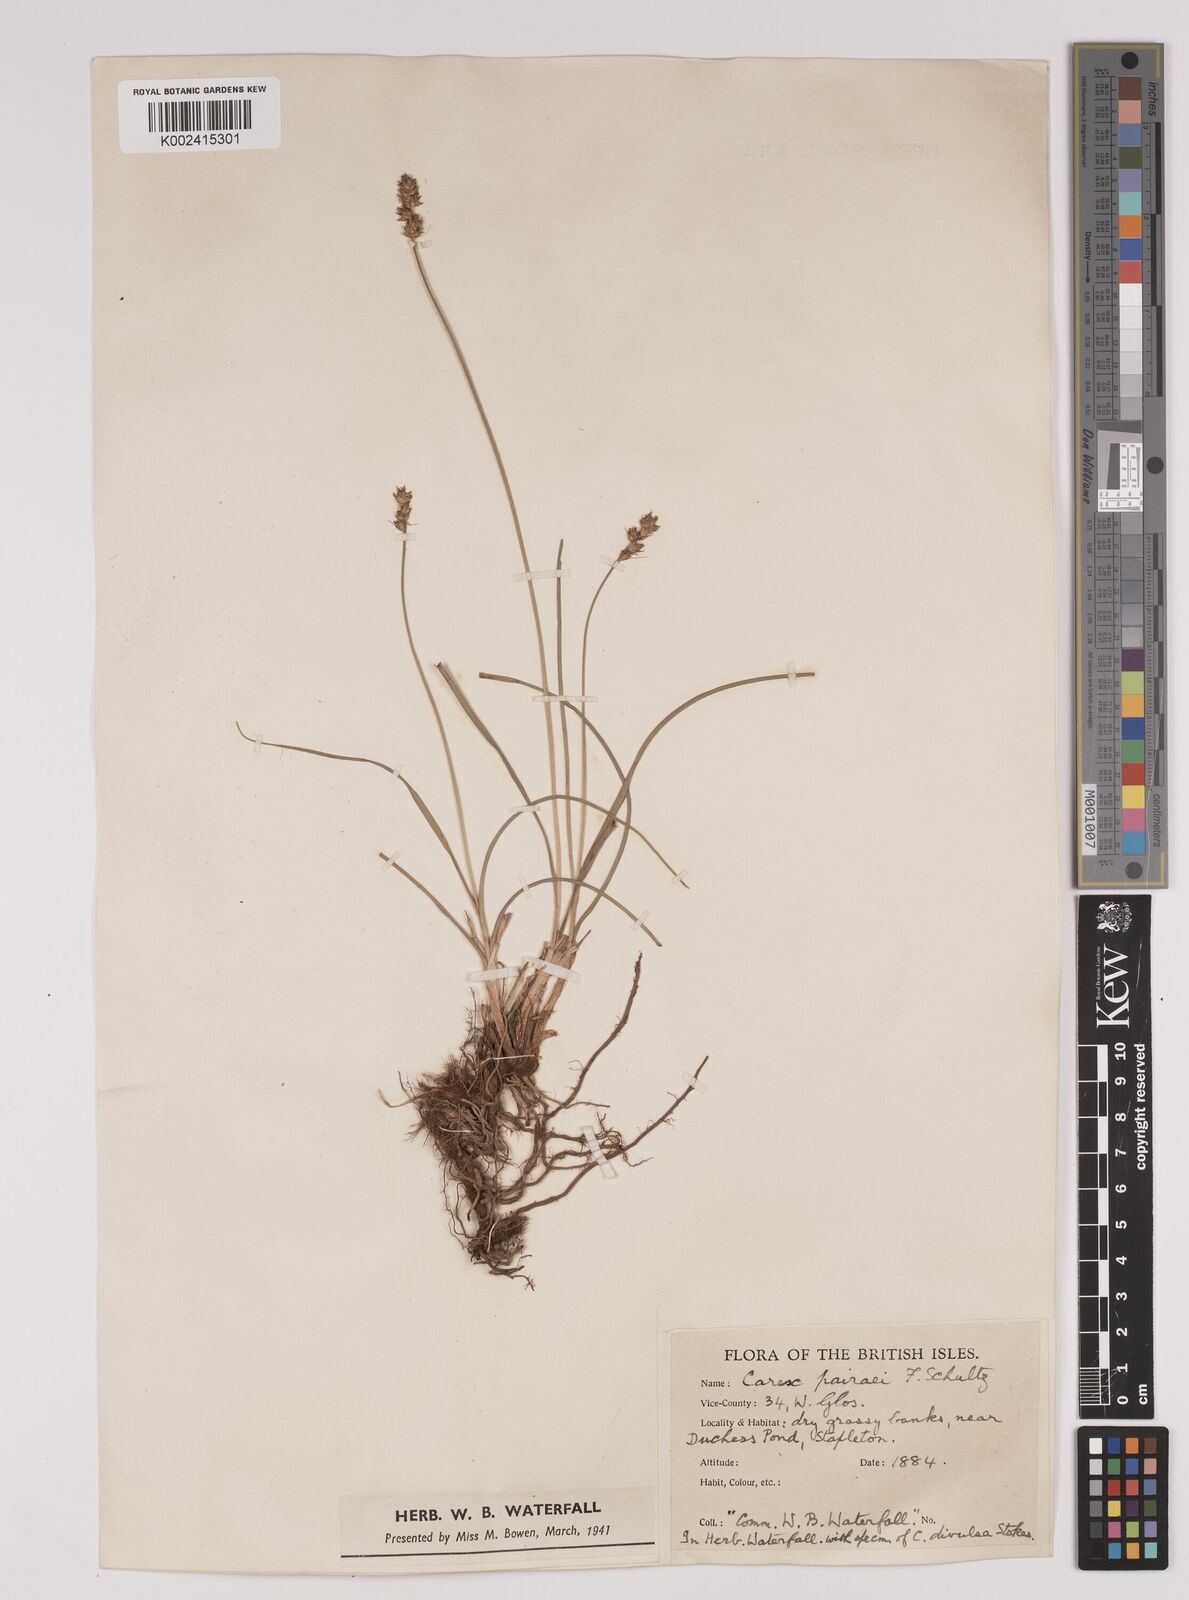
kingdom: Plantae
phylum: Tracheophyta
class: Liliopsida
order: Poales
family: Cyperaceae
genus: Carex
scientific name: Carex pulicaris
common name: Flea sedge
